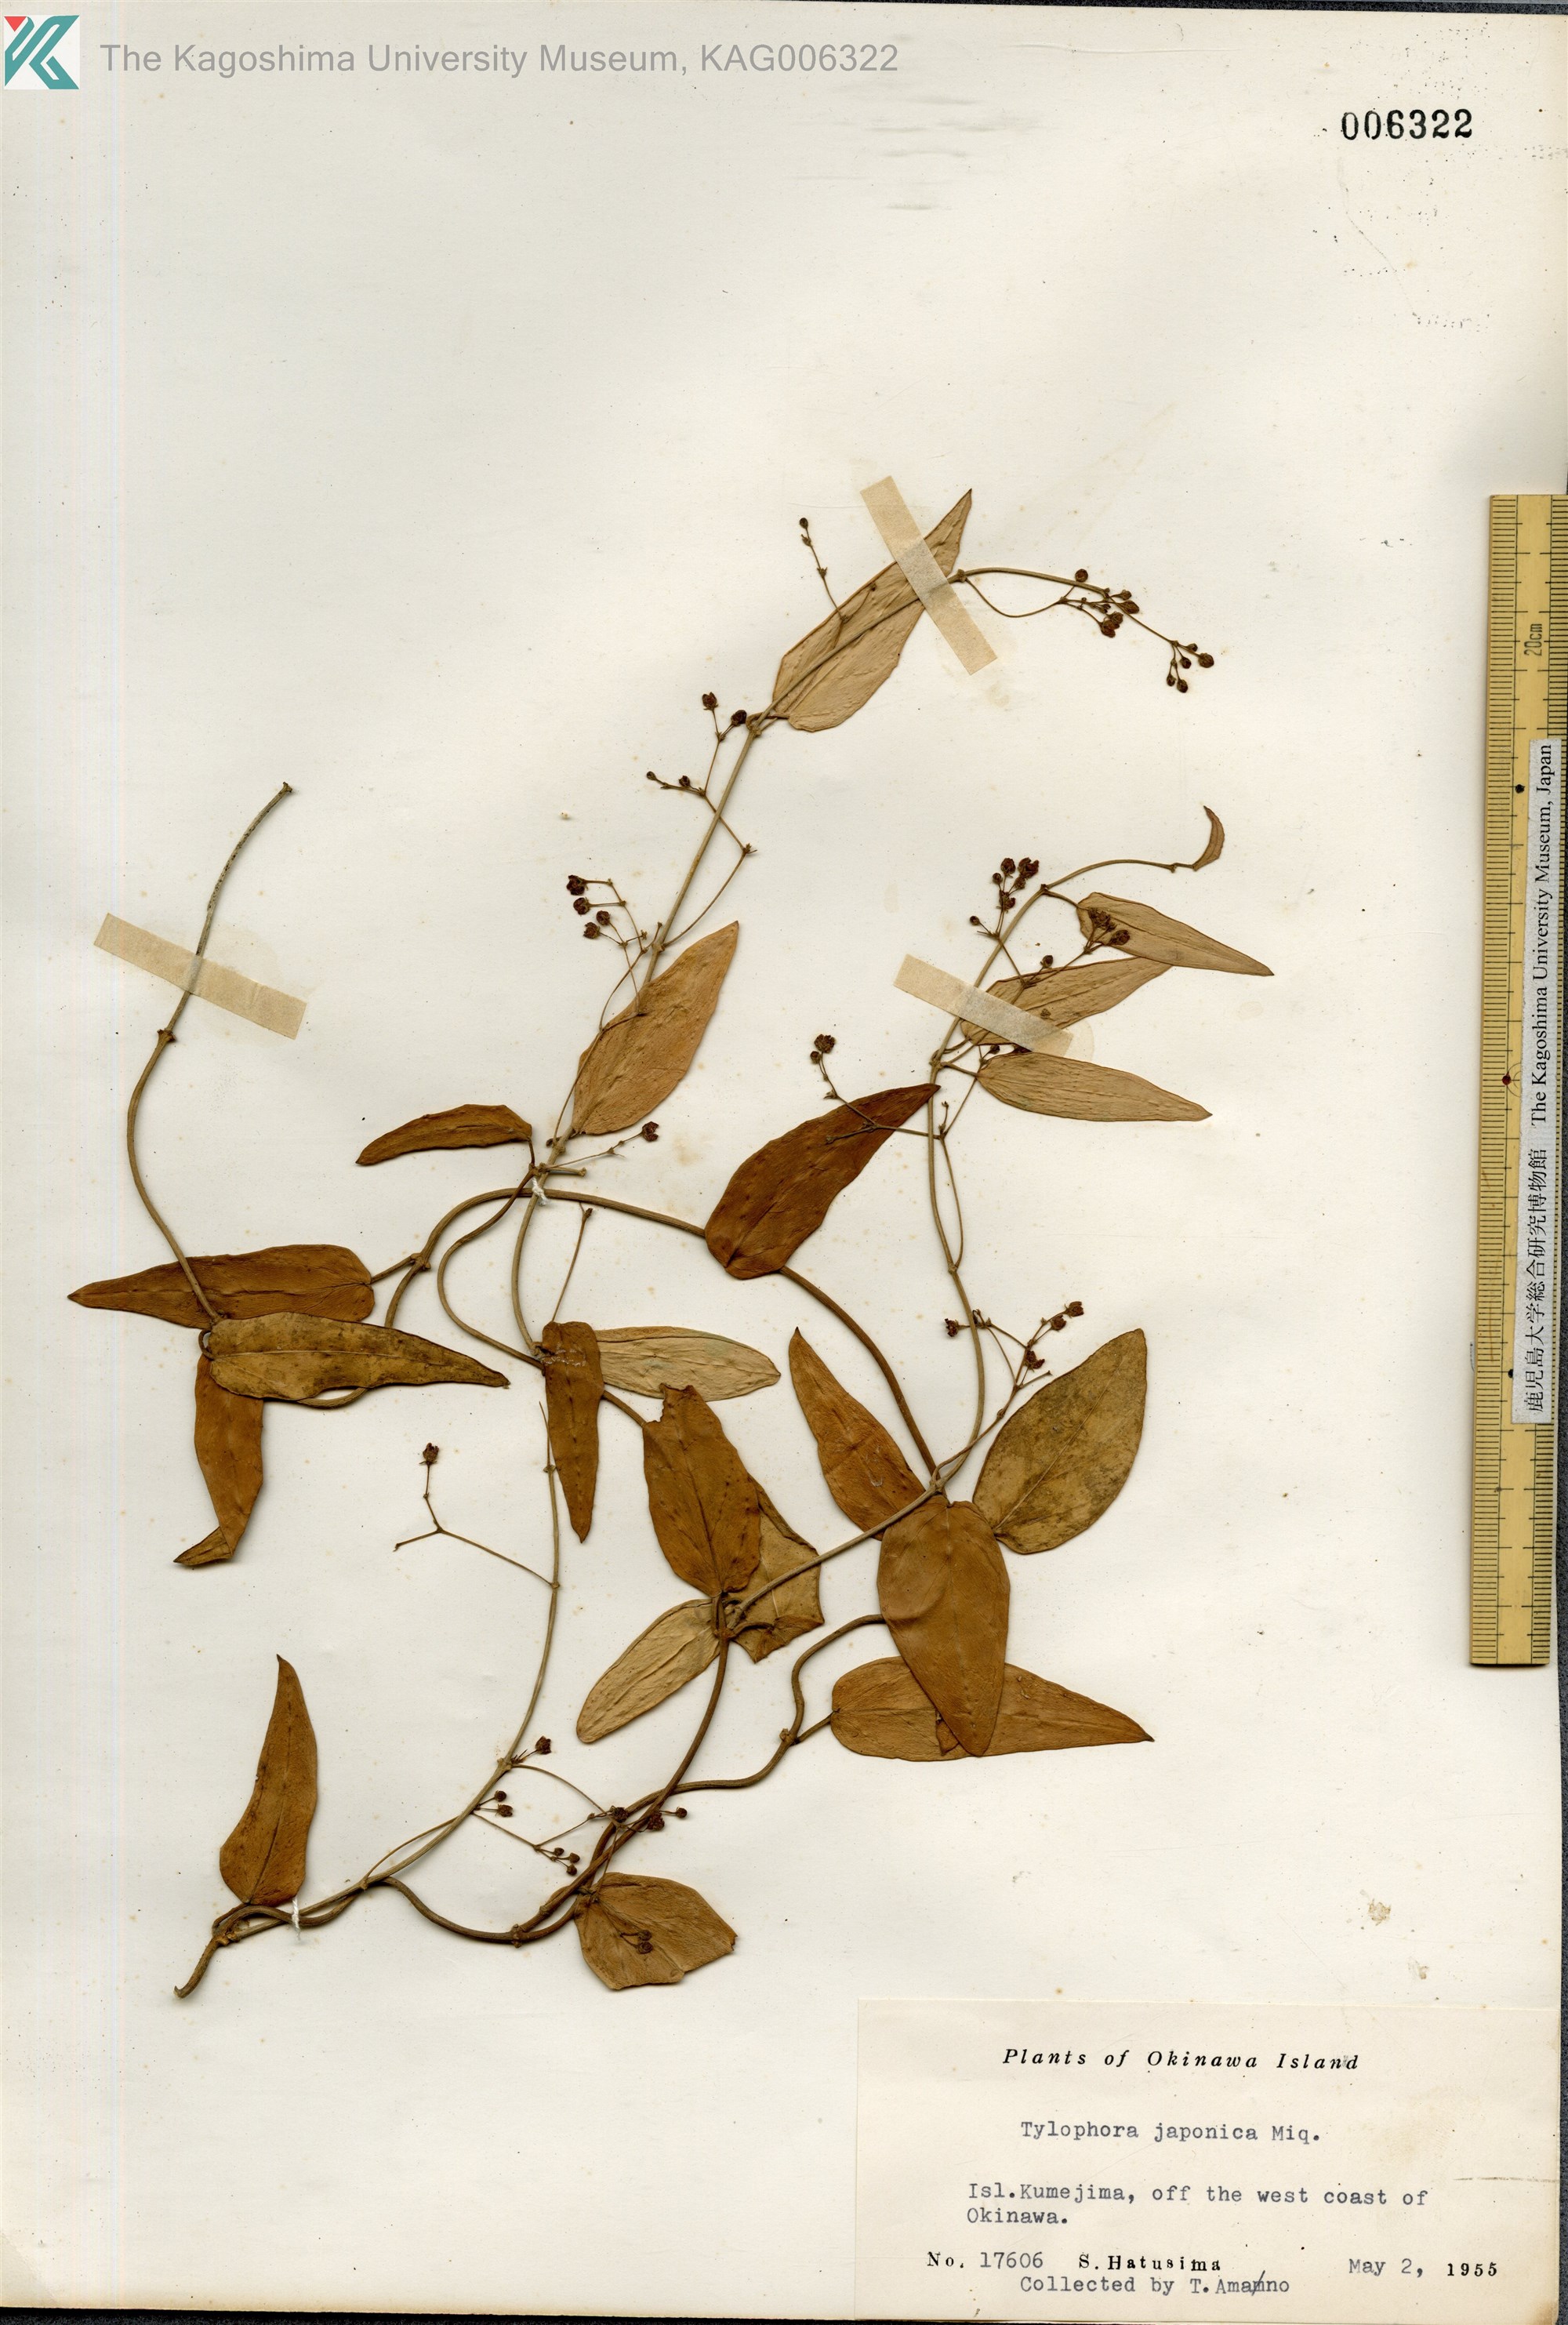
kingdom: Plantae
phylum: Tracheophyta
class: Magnoliopsida
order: Gentianales
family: Apocynaceae
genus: Vincetoxicum
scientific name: Vincetoxicum sieboldii
